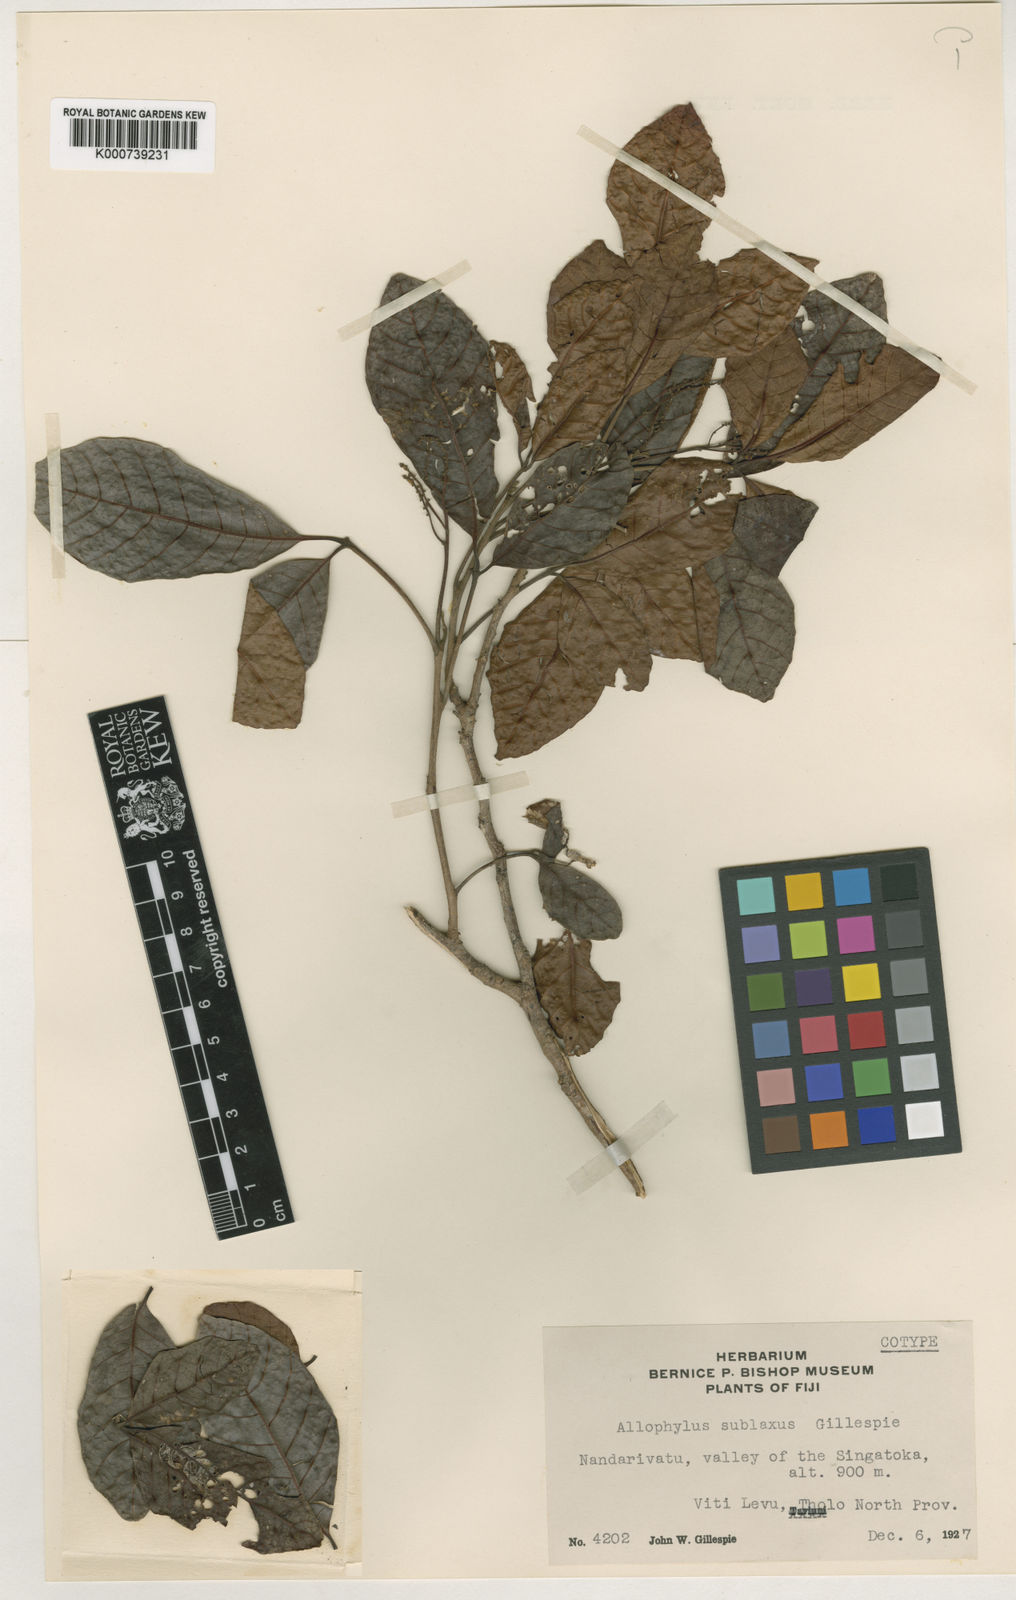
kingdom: Plantae
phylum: Tracheophyta
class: Magnoliopsida
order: Sapindales
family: Sapindaceae
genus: Allophylus
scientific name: Allophylus
